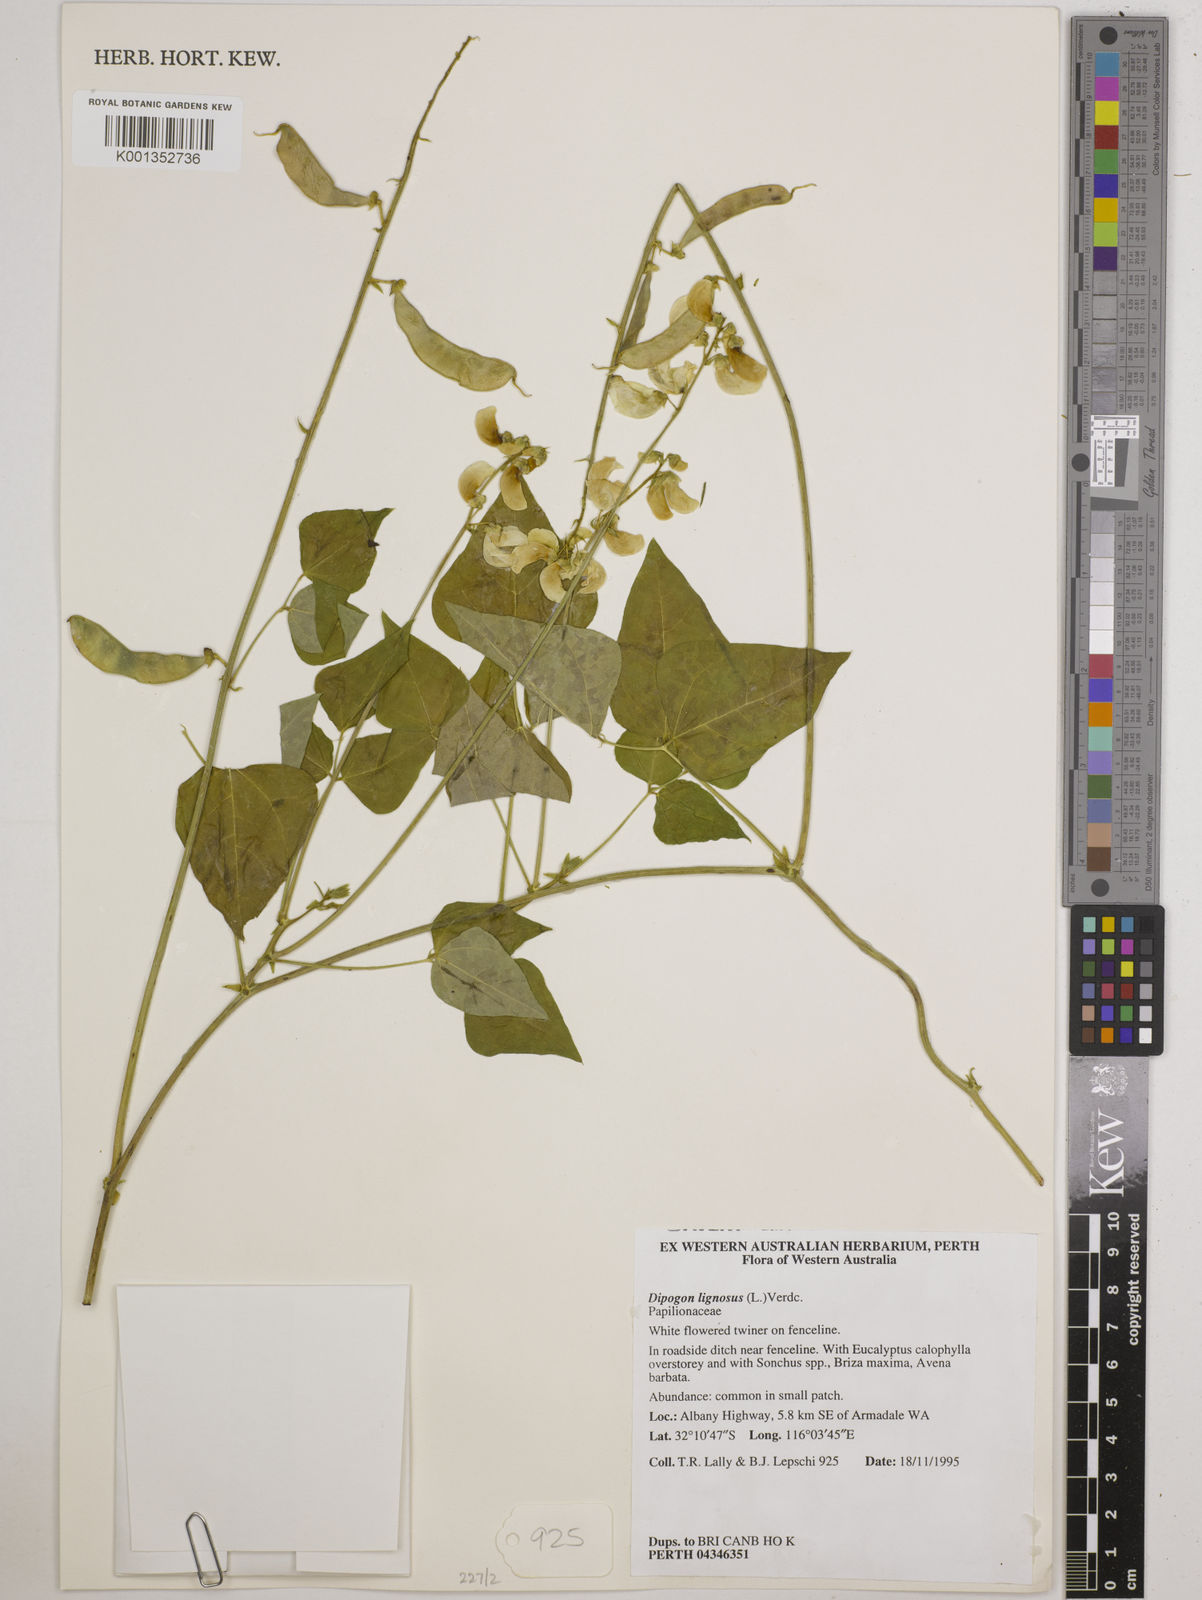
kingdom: Plantae
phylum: Tracheophyta
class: Magnoliopsida
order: Fabales
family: Fabaceae
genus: Dipogon
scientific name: Dipogon lignosus
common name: Okie bean
